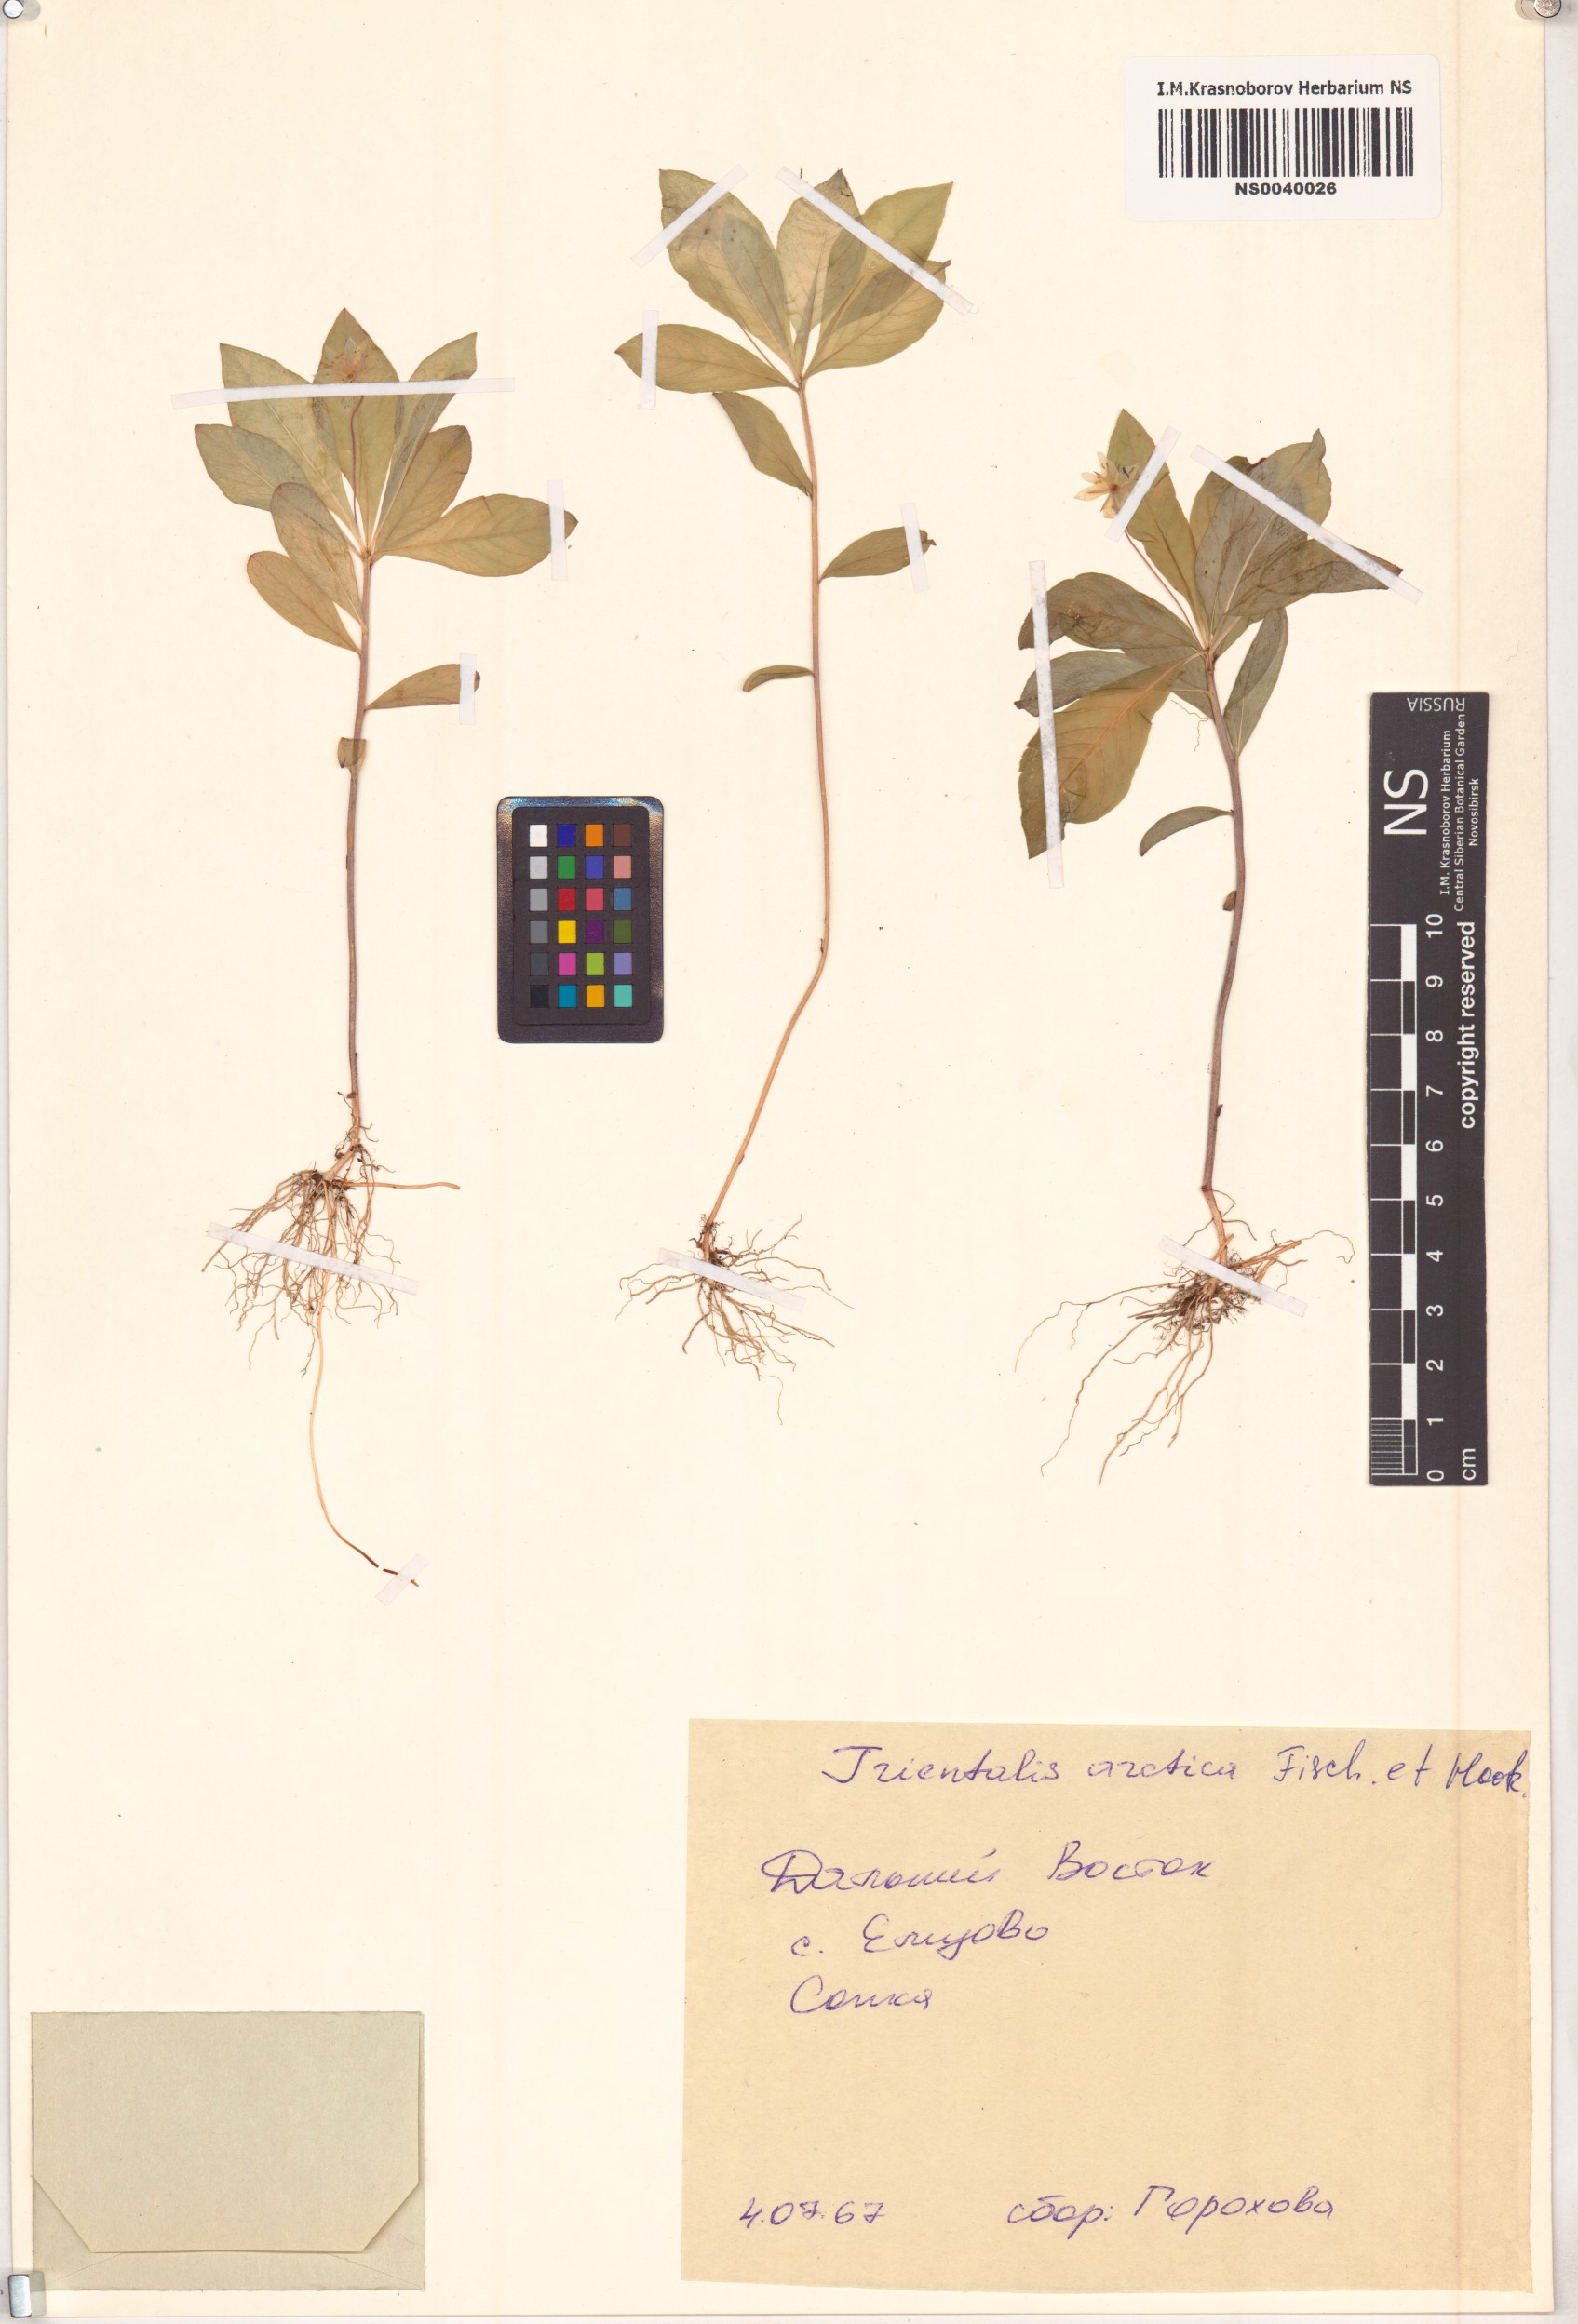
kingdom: Plantae
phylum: Tracheophyta
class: Magnoliopsida
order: Ericales
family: Primulaceae
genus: Lysimachia
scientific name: Lysimachia europaea
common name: Arctic starflower
